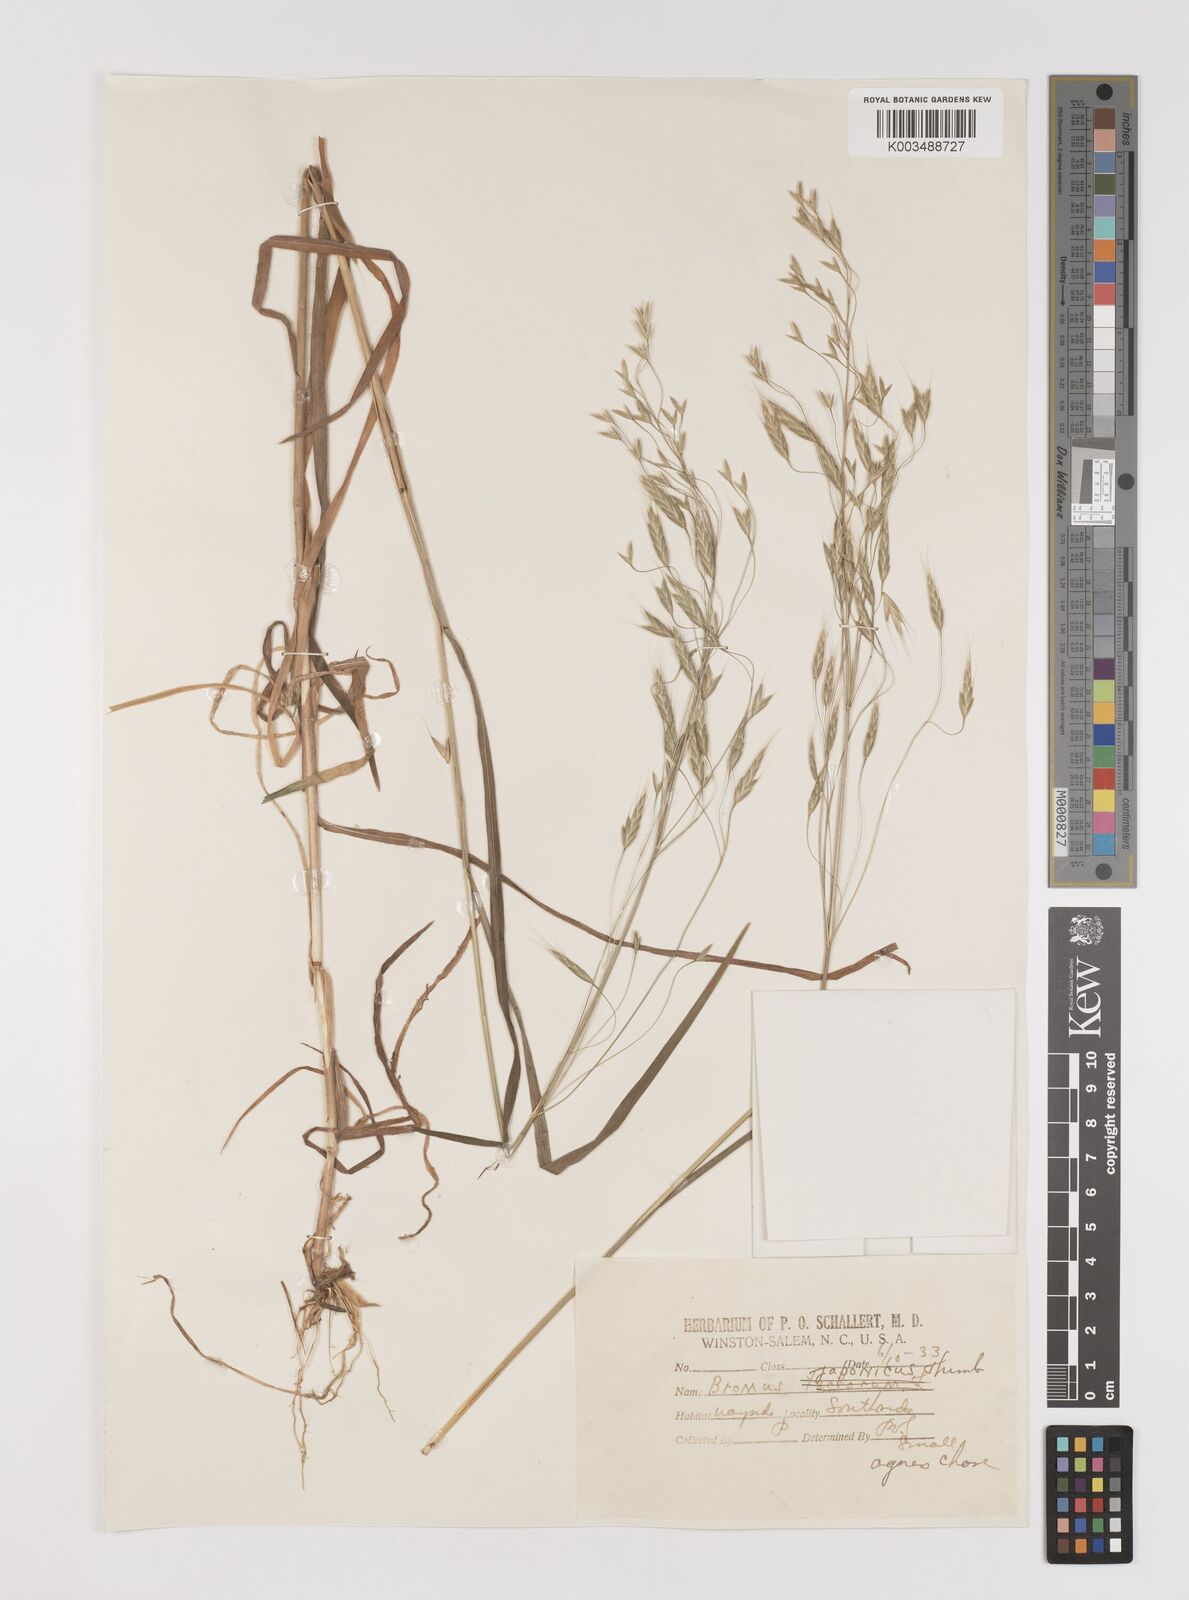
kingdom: Plantae
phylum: Tracheophyta
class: Liliopsida
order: Poales
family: Poaceae
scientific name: Poaceae
